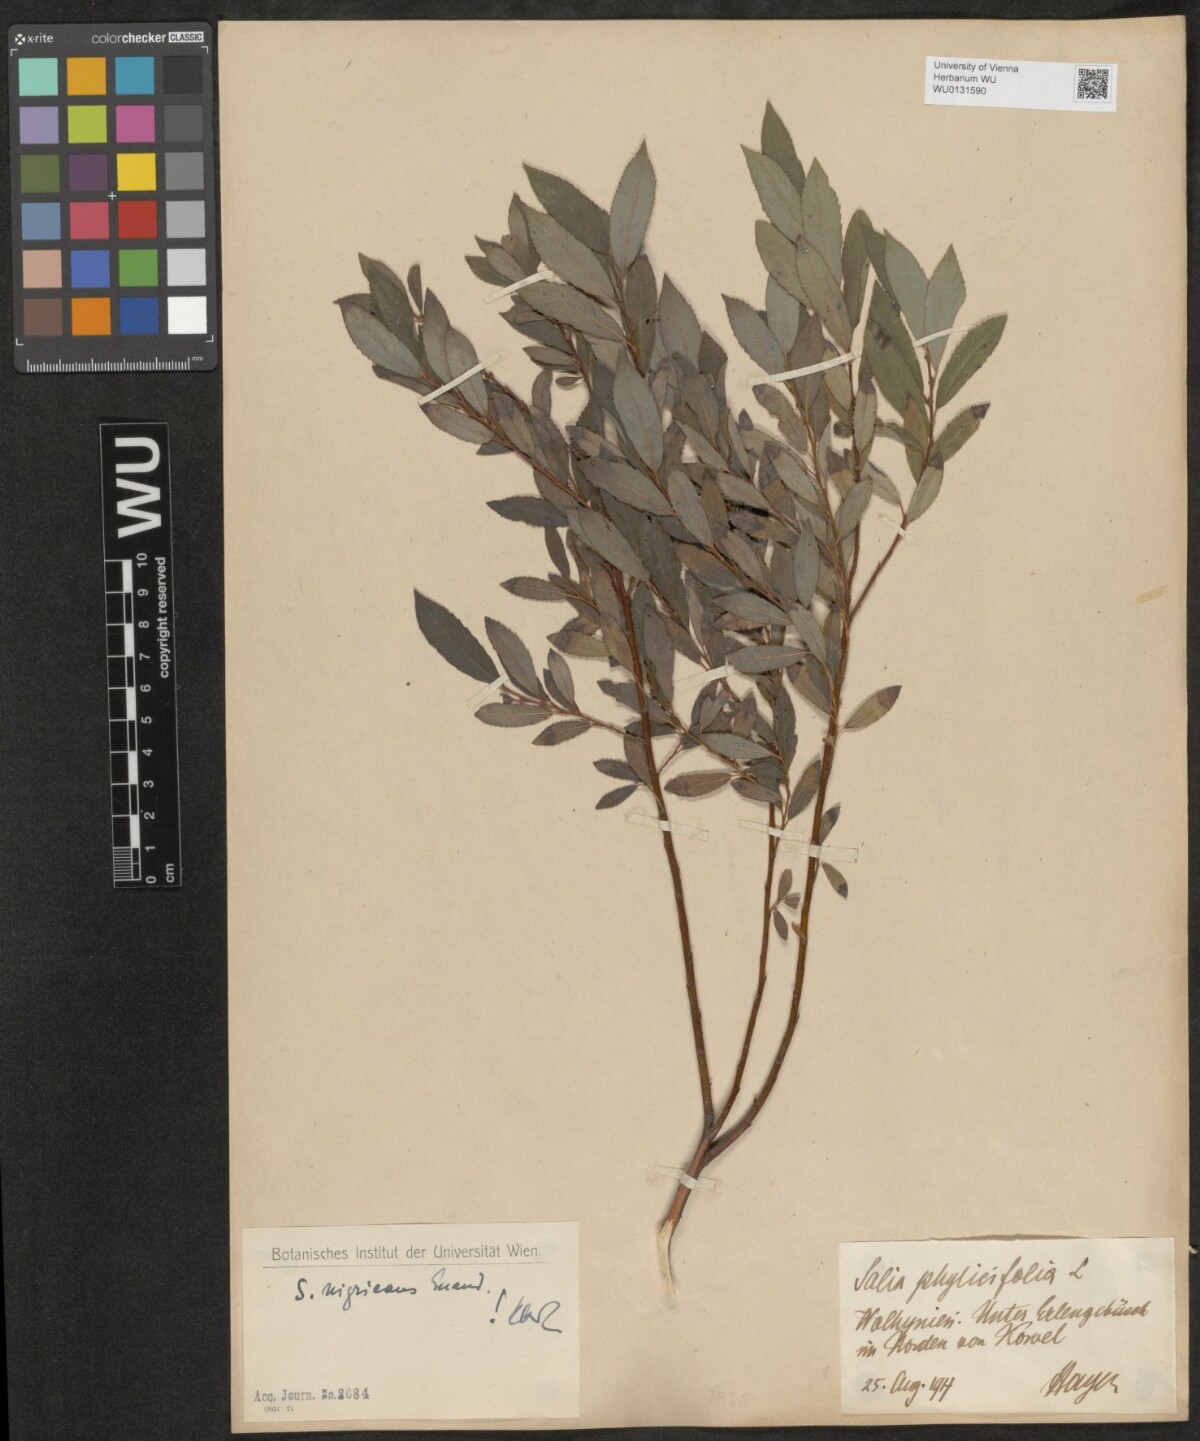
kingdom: Plantae
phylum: Tracheophyta
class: Magnoliopsida
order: Malpighiales
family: Salicaceae
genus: Salix
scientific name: Salix myrsinifolia
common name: Dark-leaved willow
